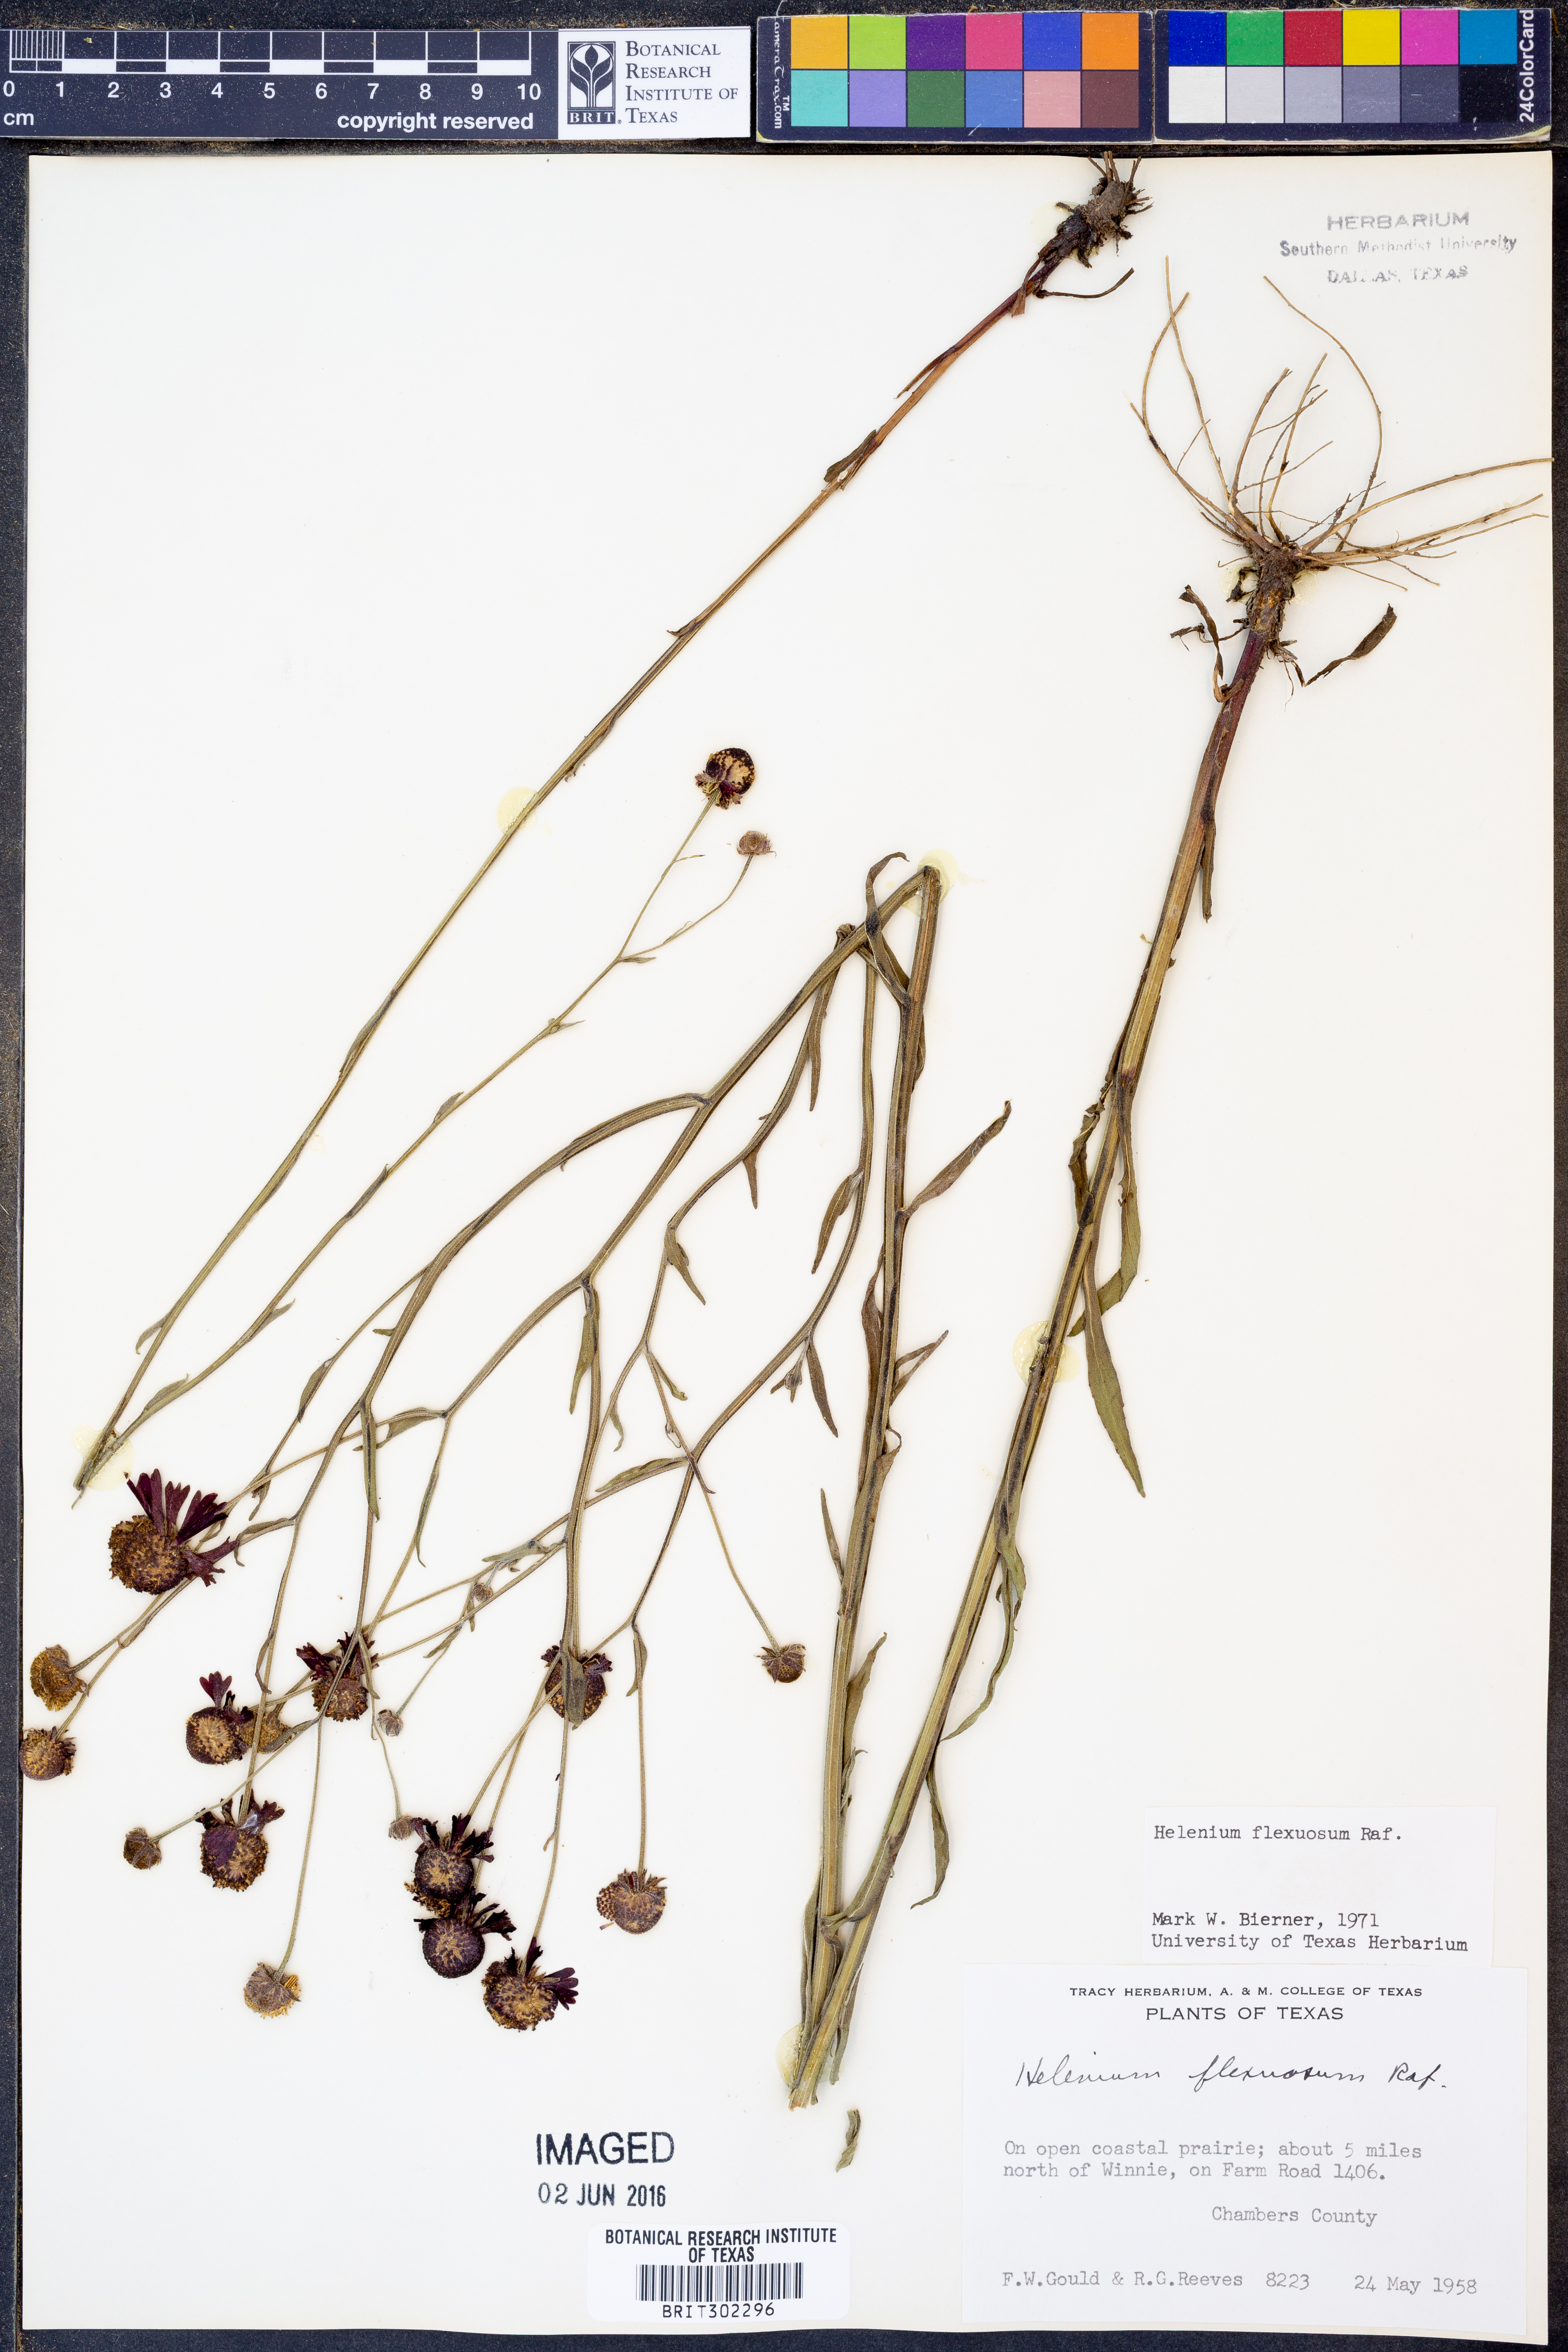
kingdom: Plantae
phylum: Tracheophyta
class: Magnoliopsida
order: Asterales
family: Asteraceae
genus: Helenium
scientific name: Helenium flexuosum
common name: Naked-flowered sneezeweed
